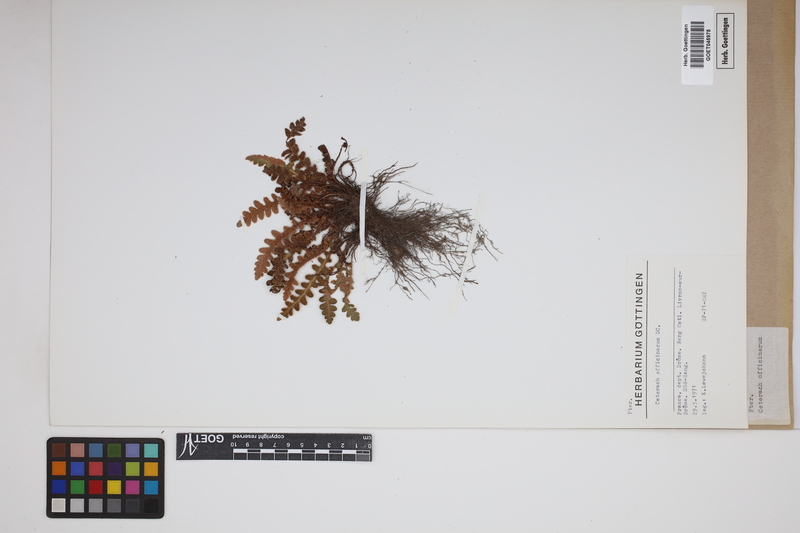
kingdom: Plantae
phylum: Tracheophyta
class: Polypodiopsida
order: Polypodiales
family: Aspleniaceae
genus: Asplenium
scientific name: Asplenium ceterach
